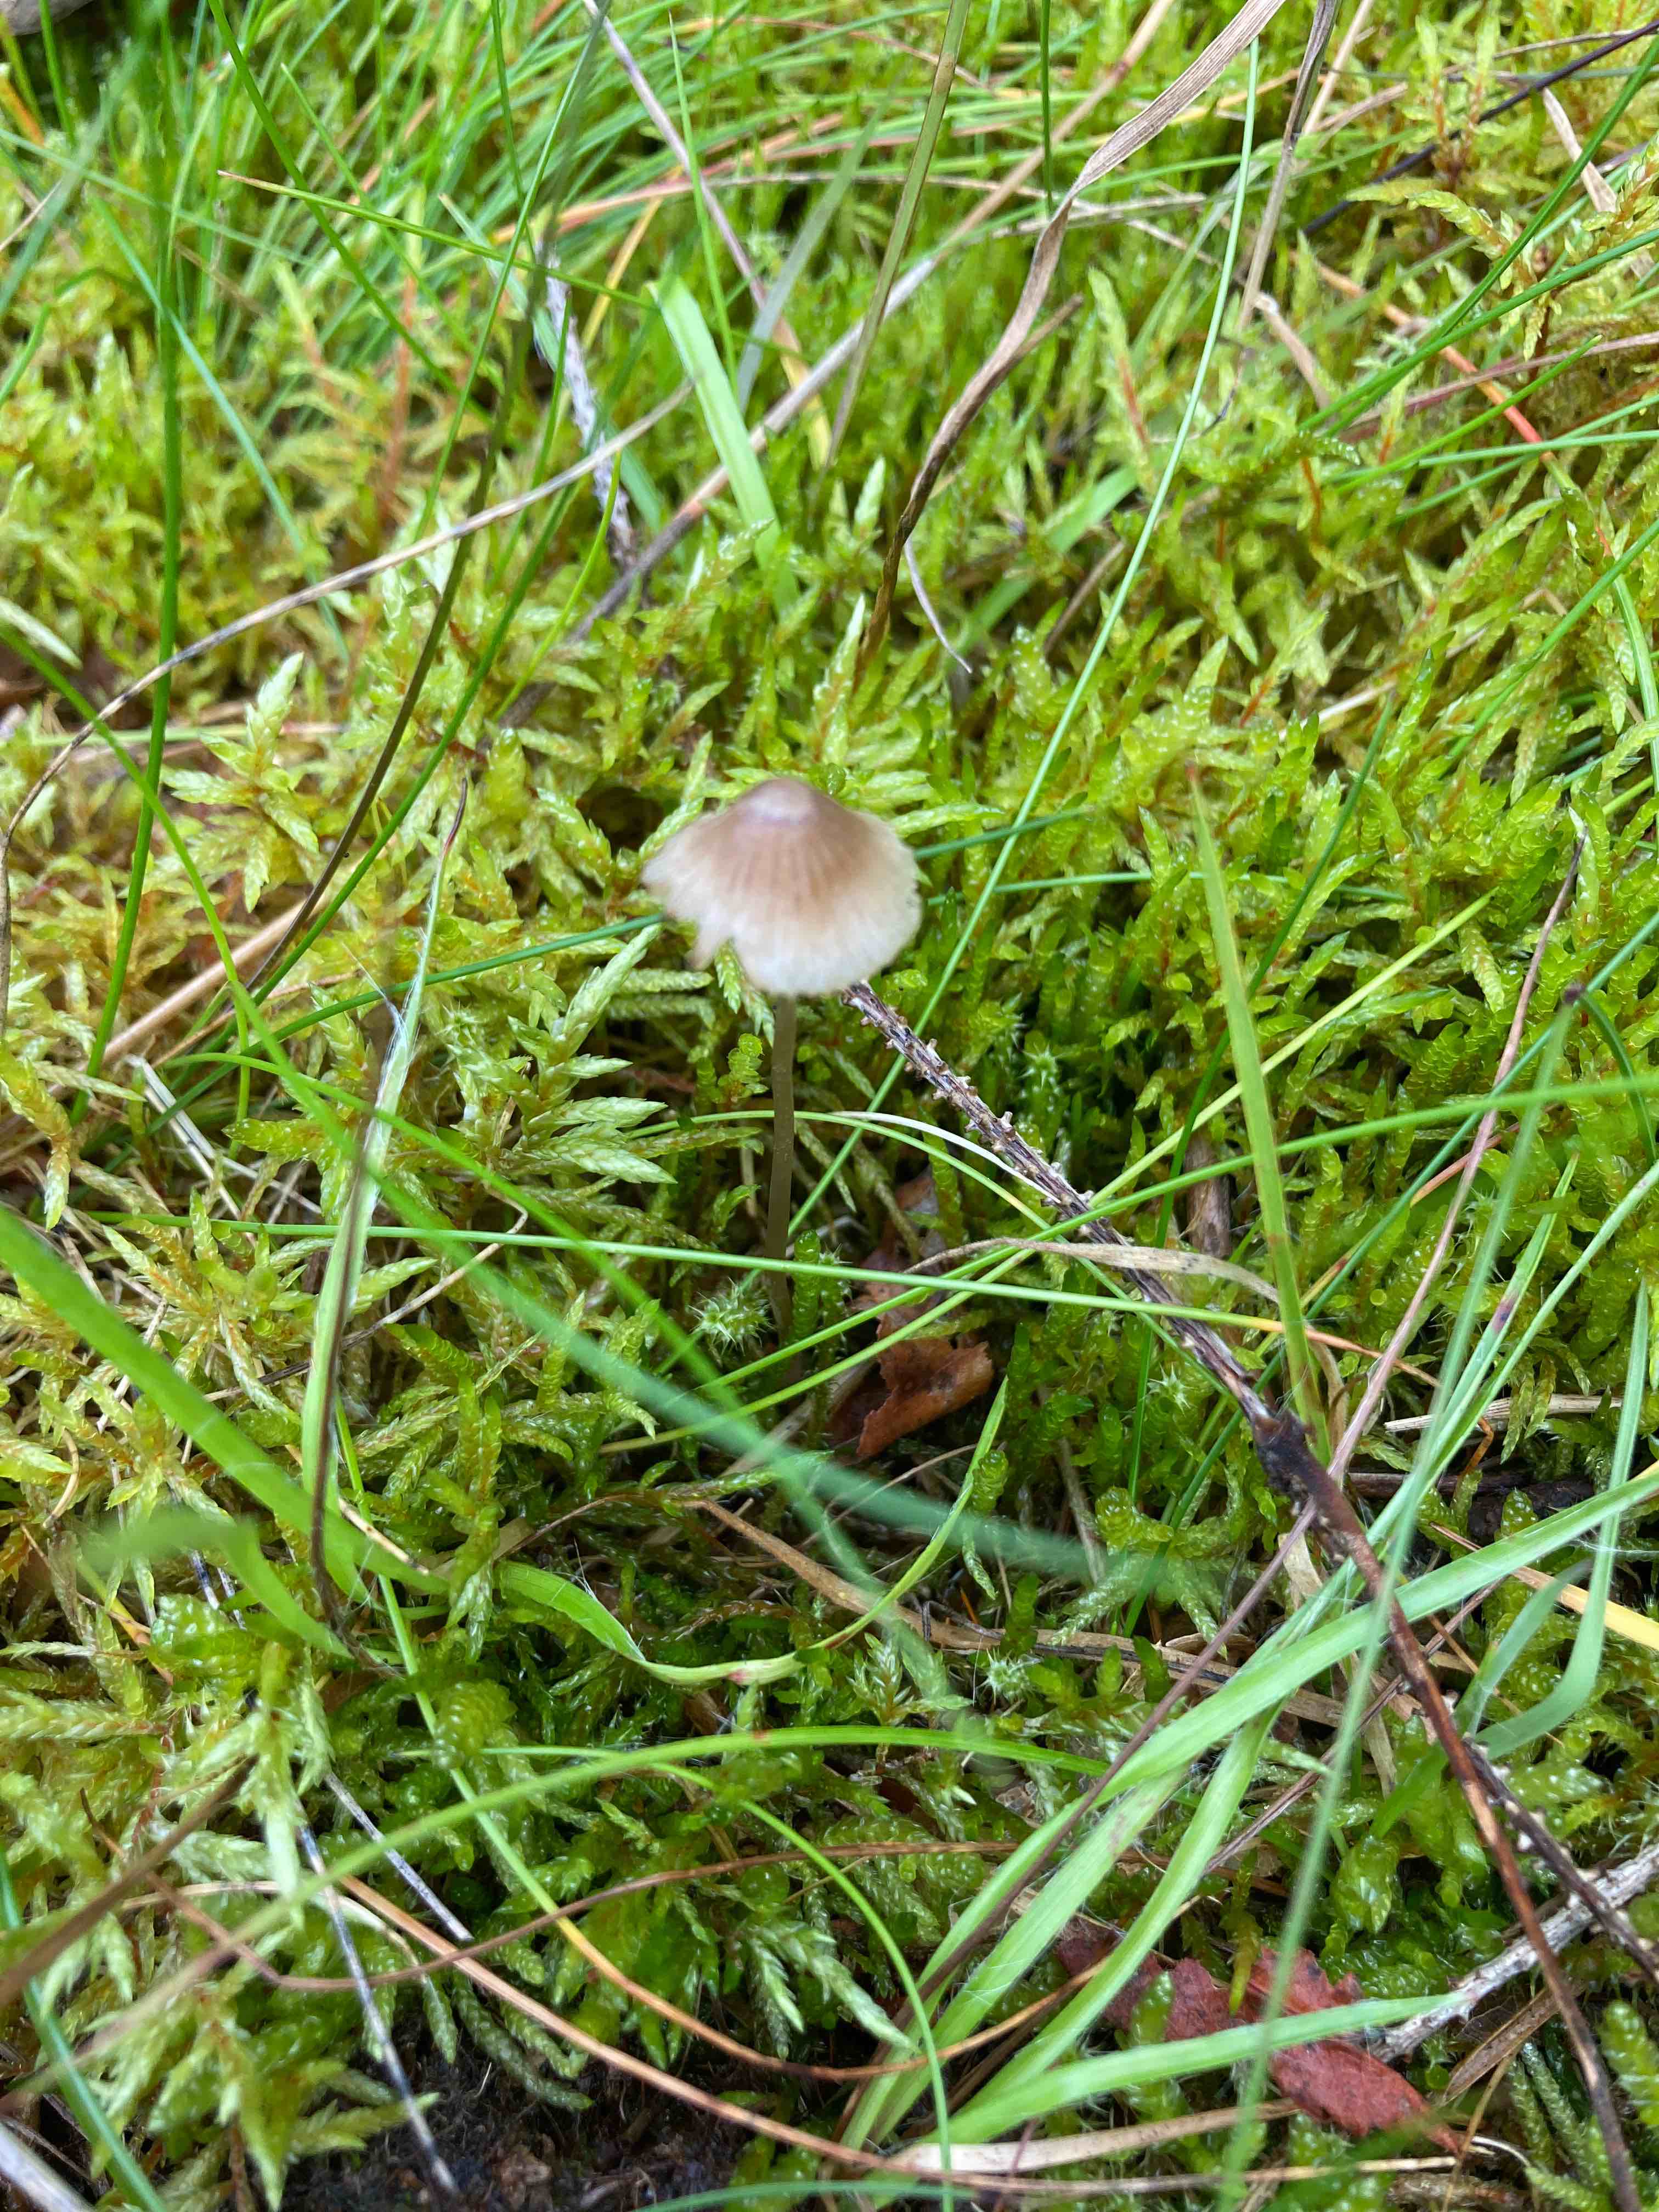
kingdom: Fungi
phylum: Basidiomycota
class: Agaricomycetes
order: Agaricales
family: Mycenaceae
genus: Mycena
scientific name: Mycena
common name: huesvamp
